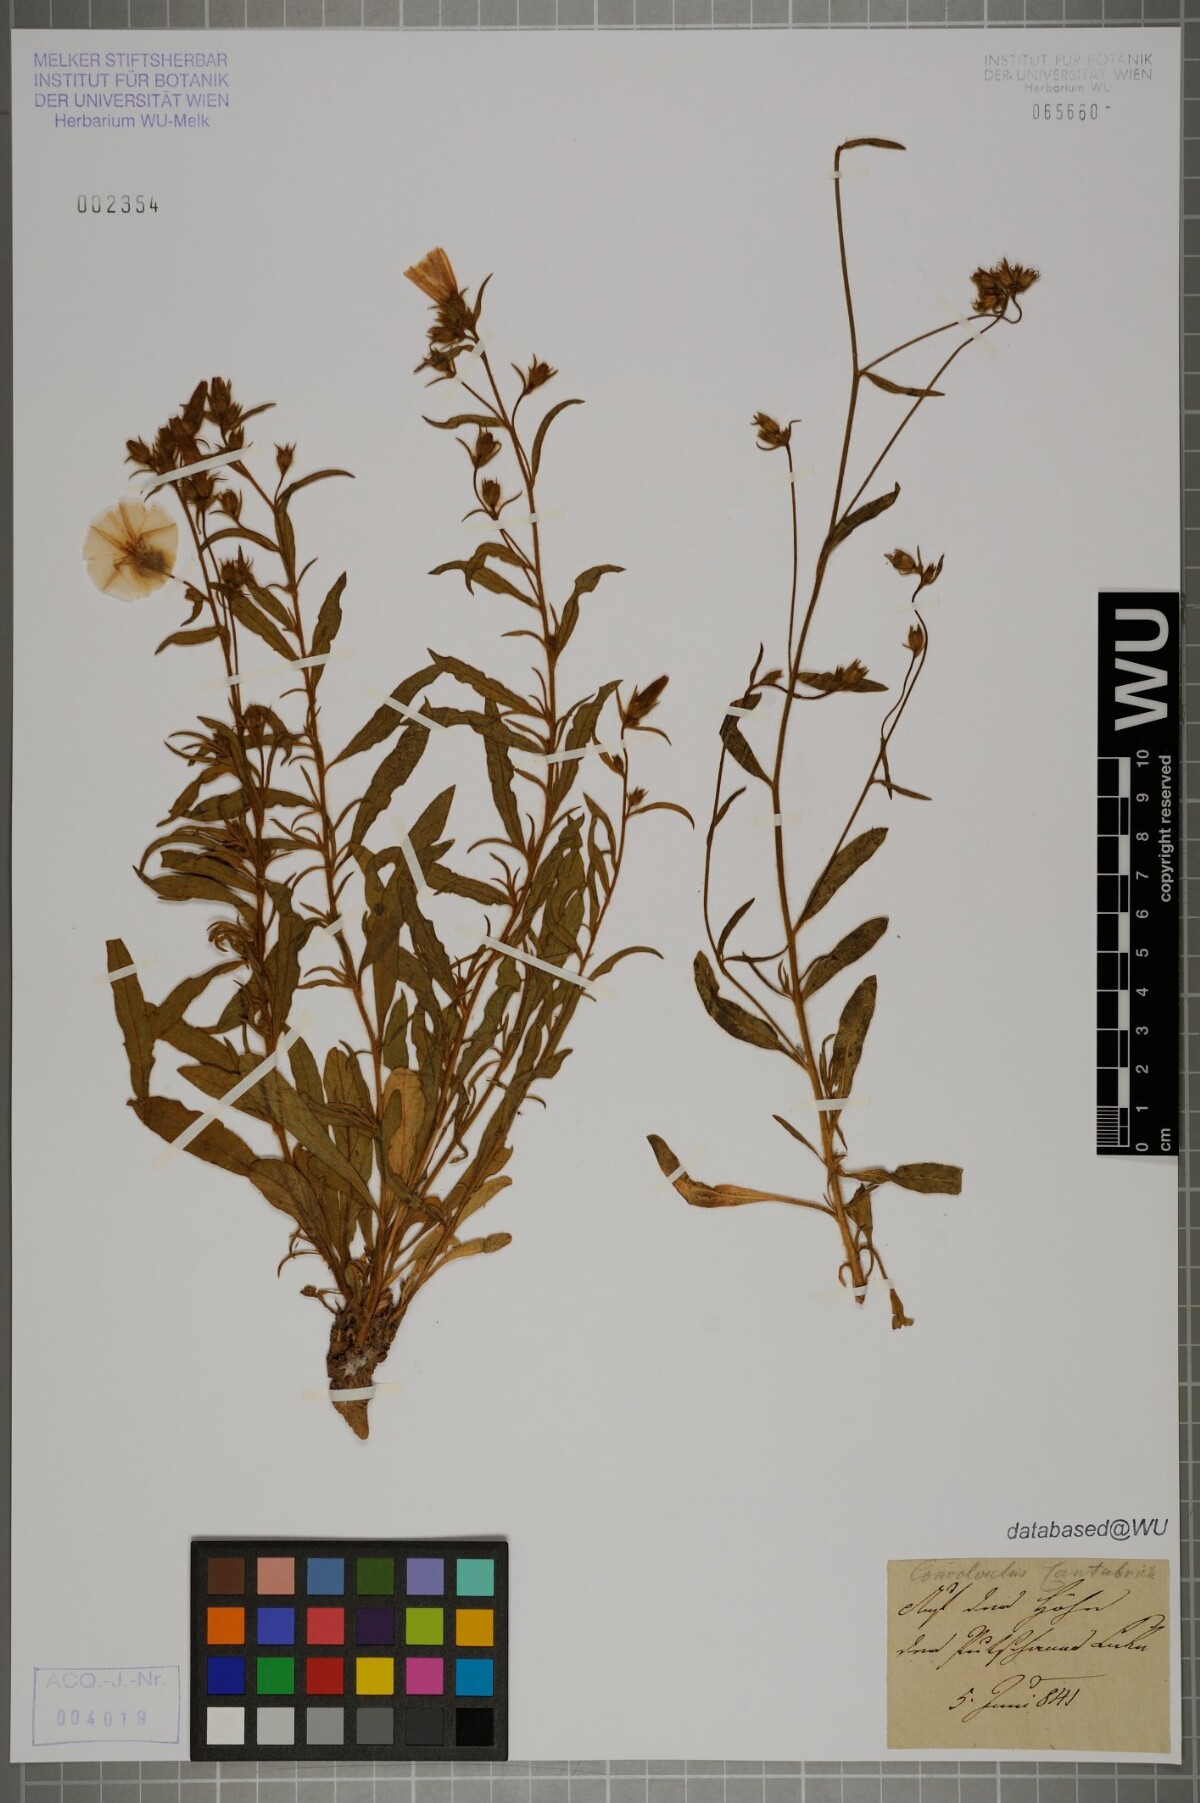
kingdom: Plantae
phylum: Tracheophyta
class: Magnoliopsida
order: Solanales
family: Convolvulaceae
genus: Convolvulus
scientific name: Convolvulus cantabrica
